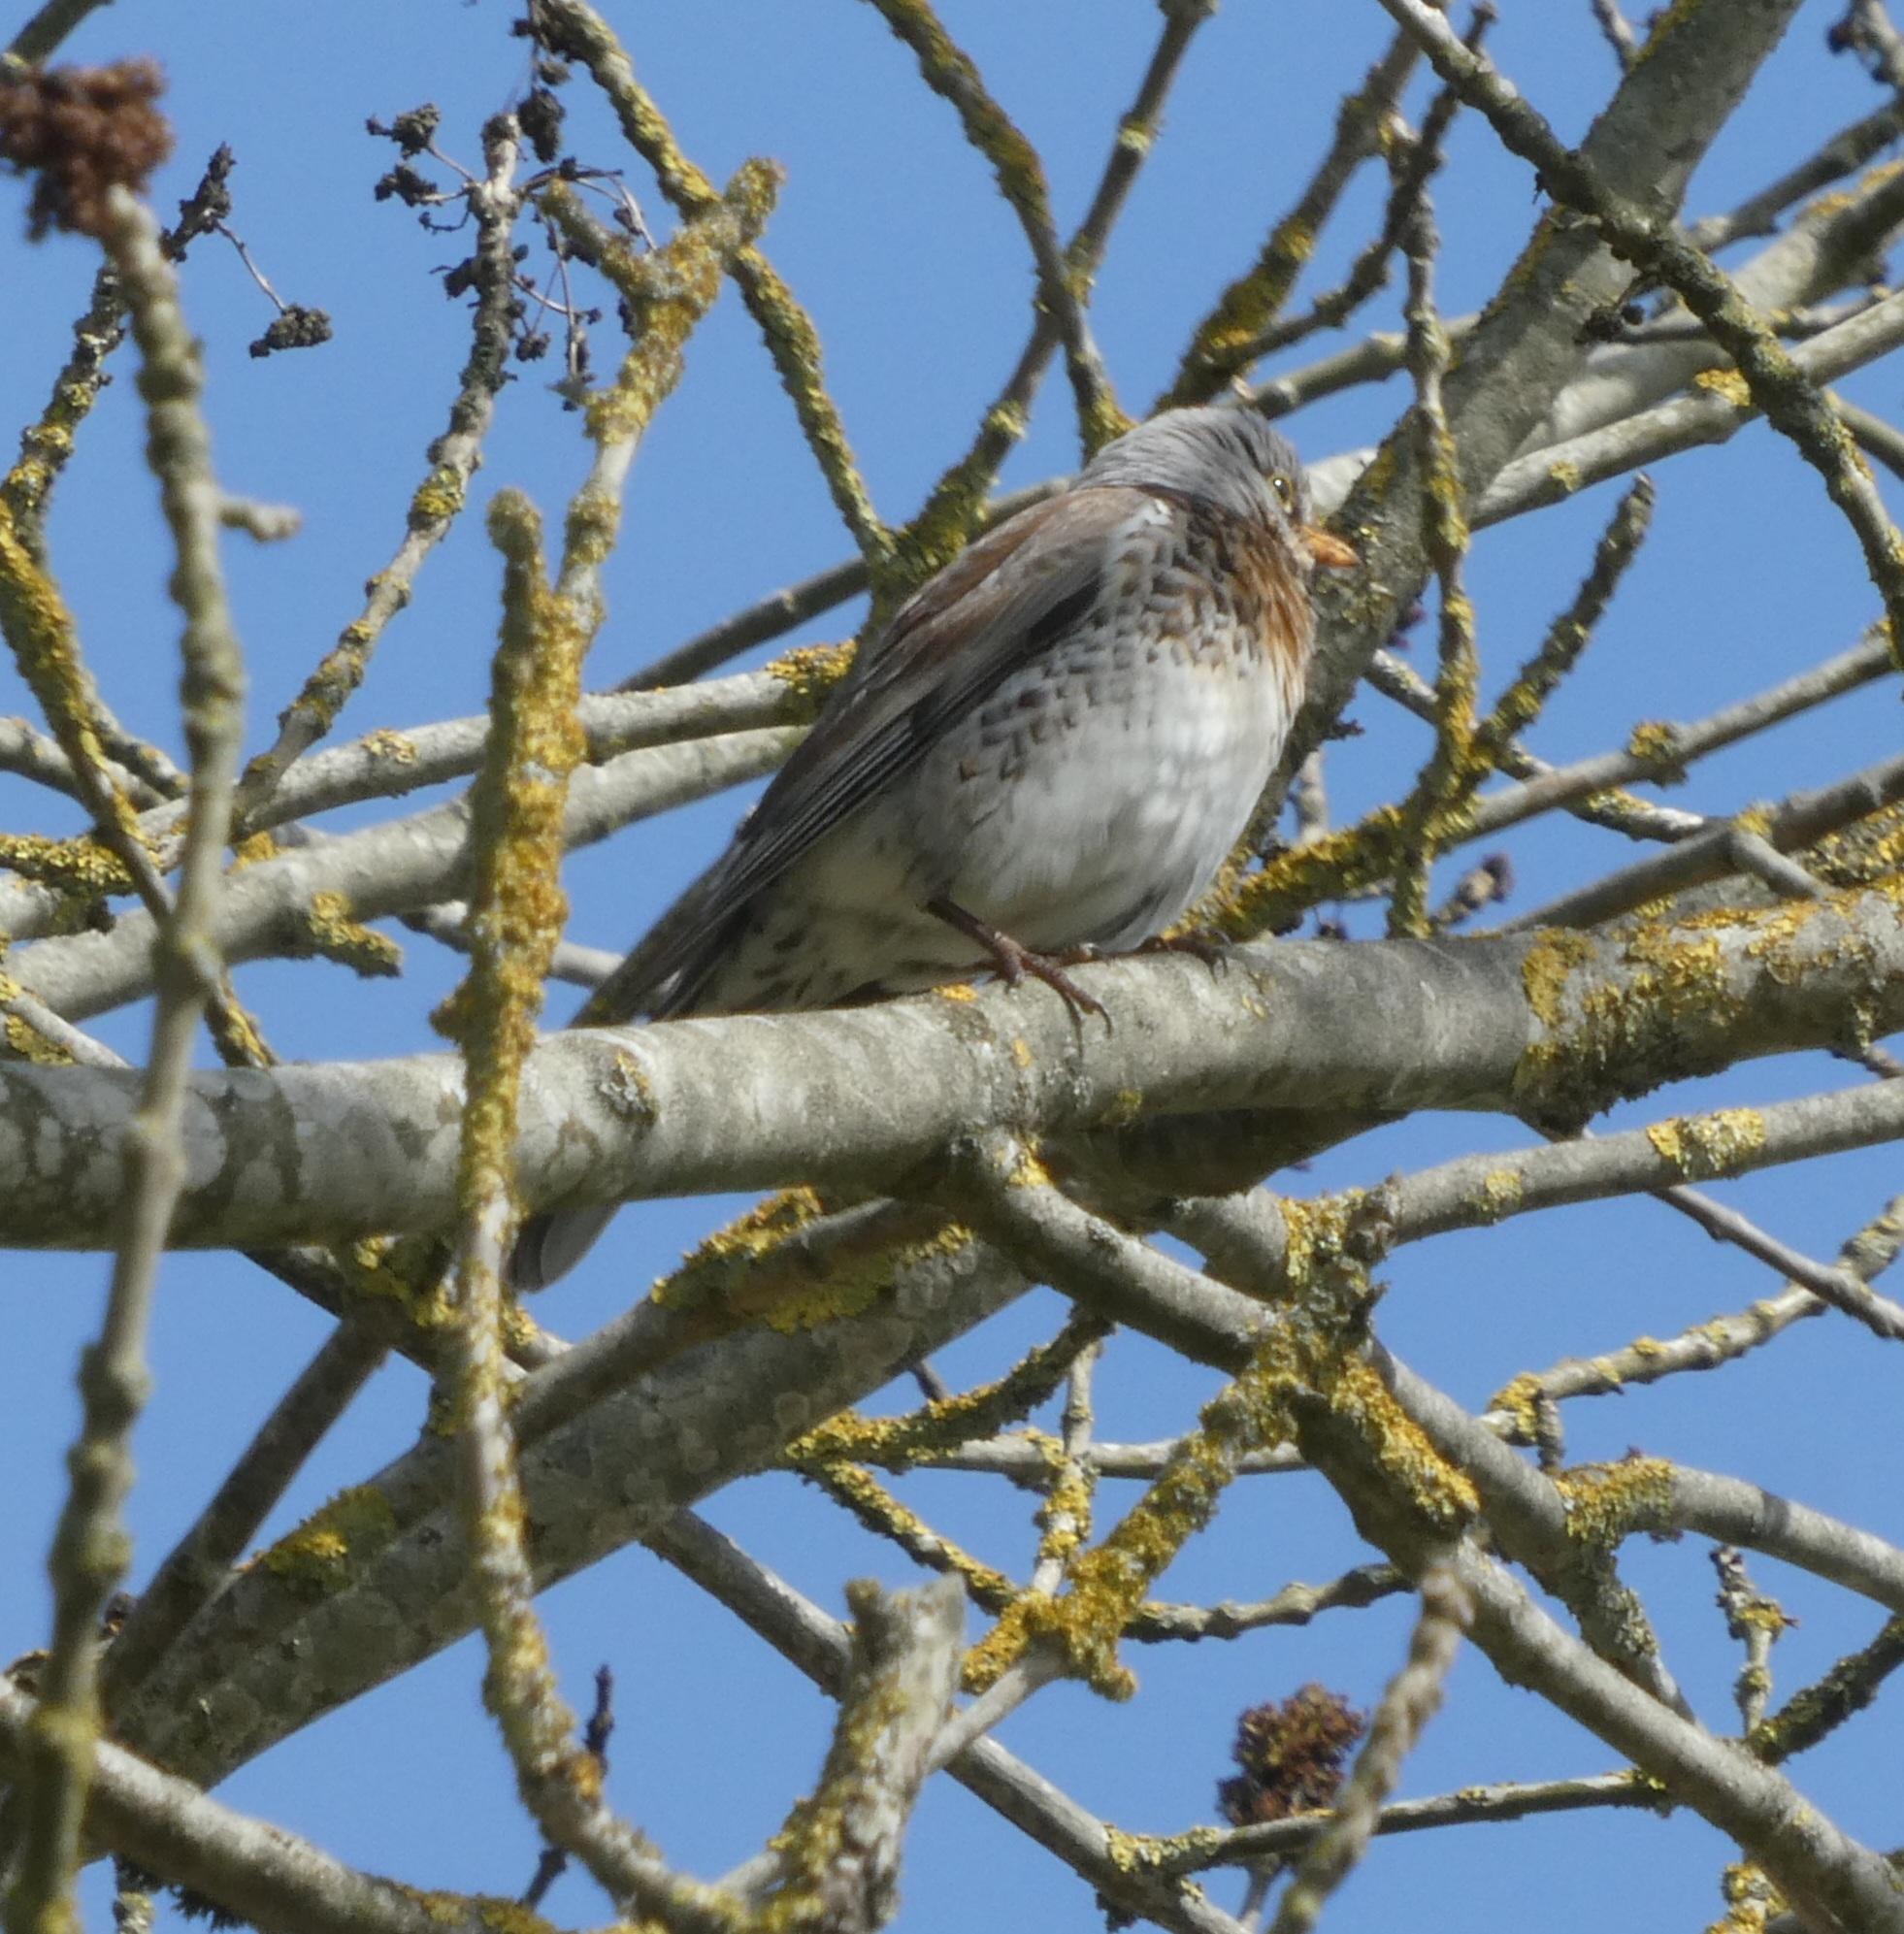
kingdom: Animalia
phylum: Chordata
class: Aves
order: Passeriformes
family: Turdidae
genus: Turdus
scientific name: Turdus pilaris
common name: Sjagger
